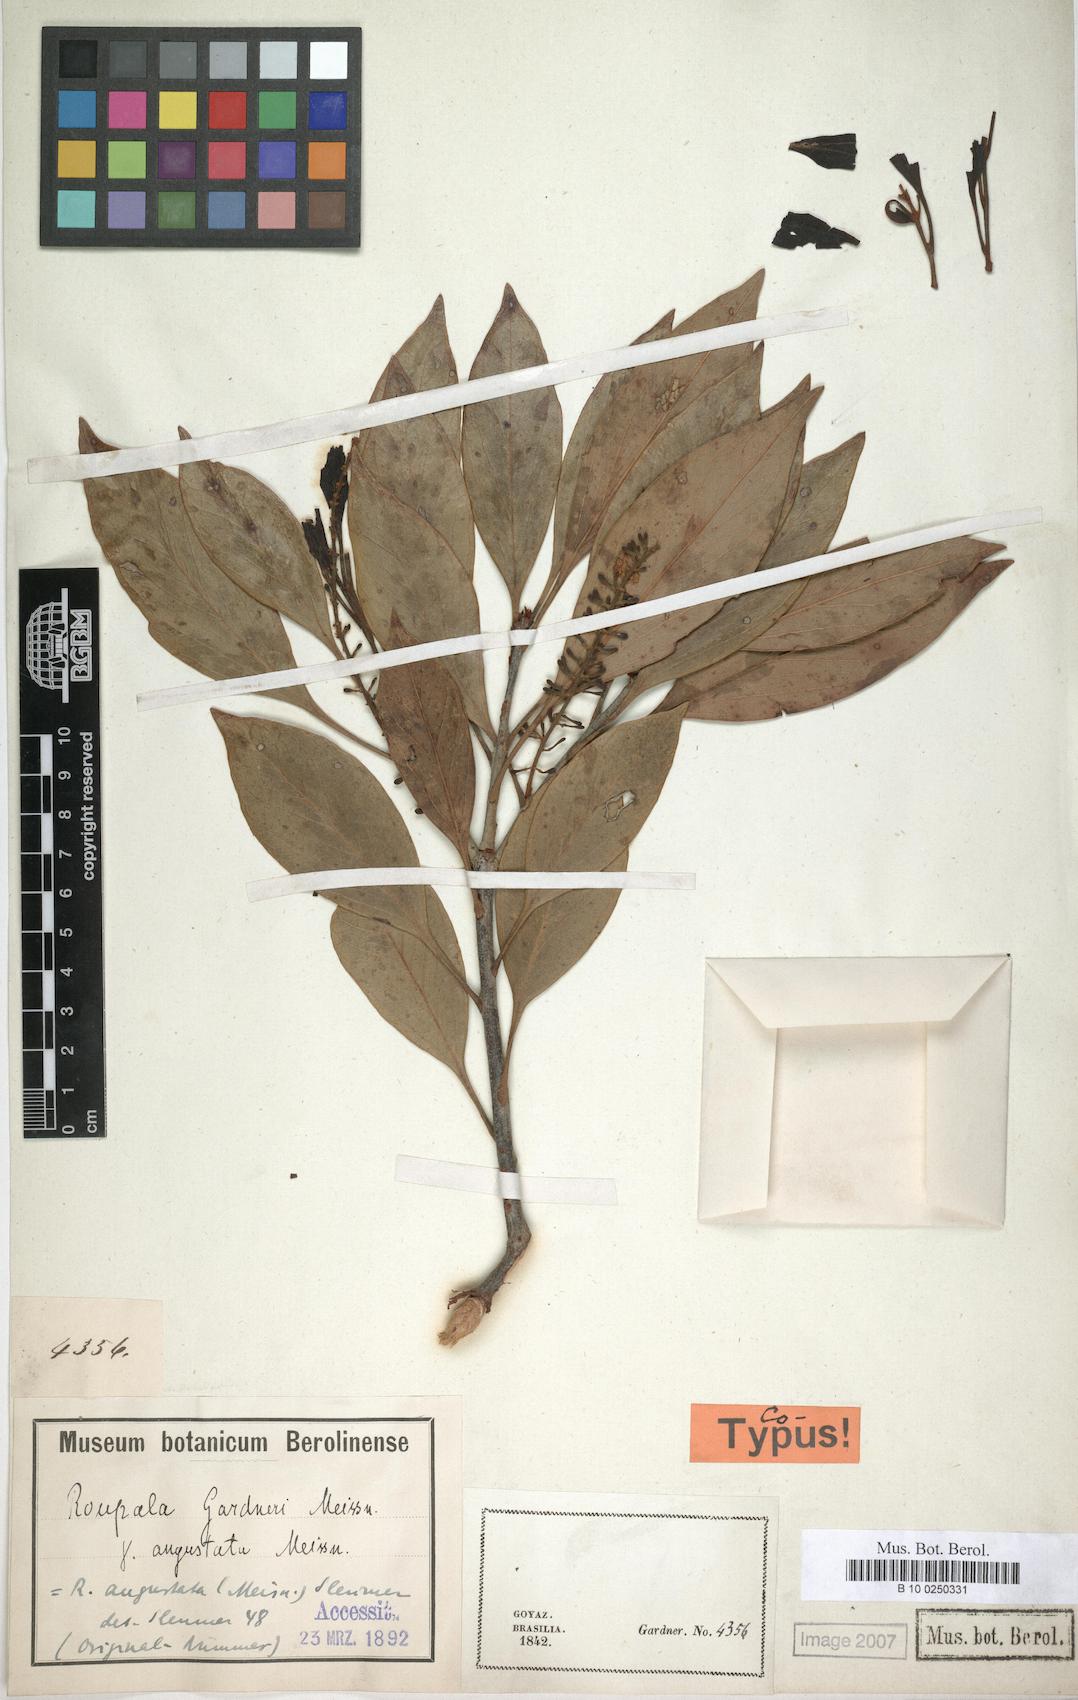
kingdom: Plantae
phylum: Tracheophyta
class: Magnoliopsida
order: Proteales
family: Proteaceae
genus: Roupala
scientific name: Roupala
